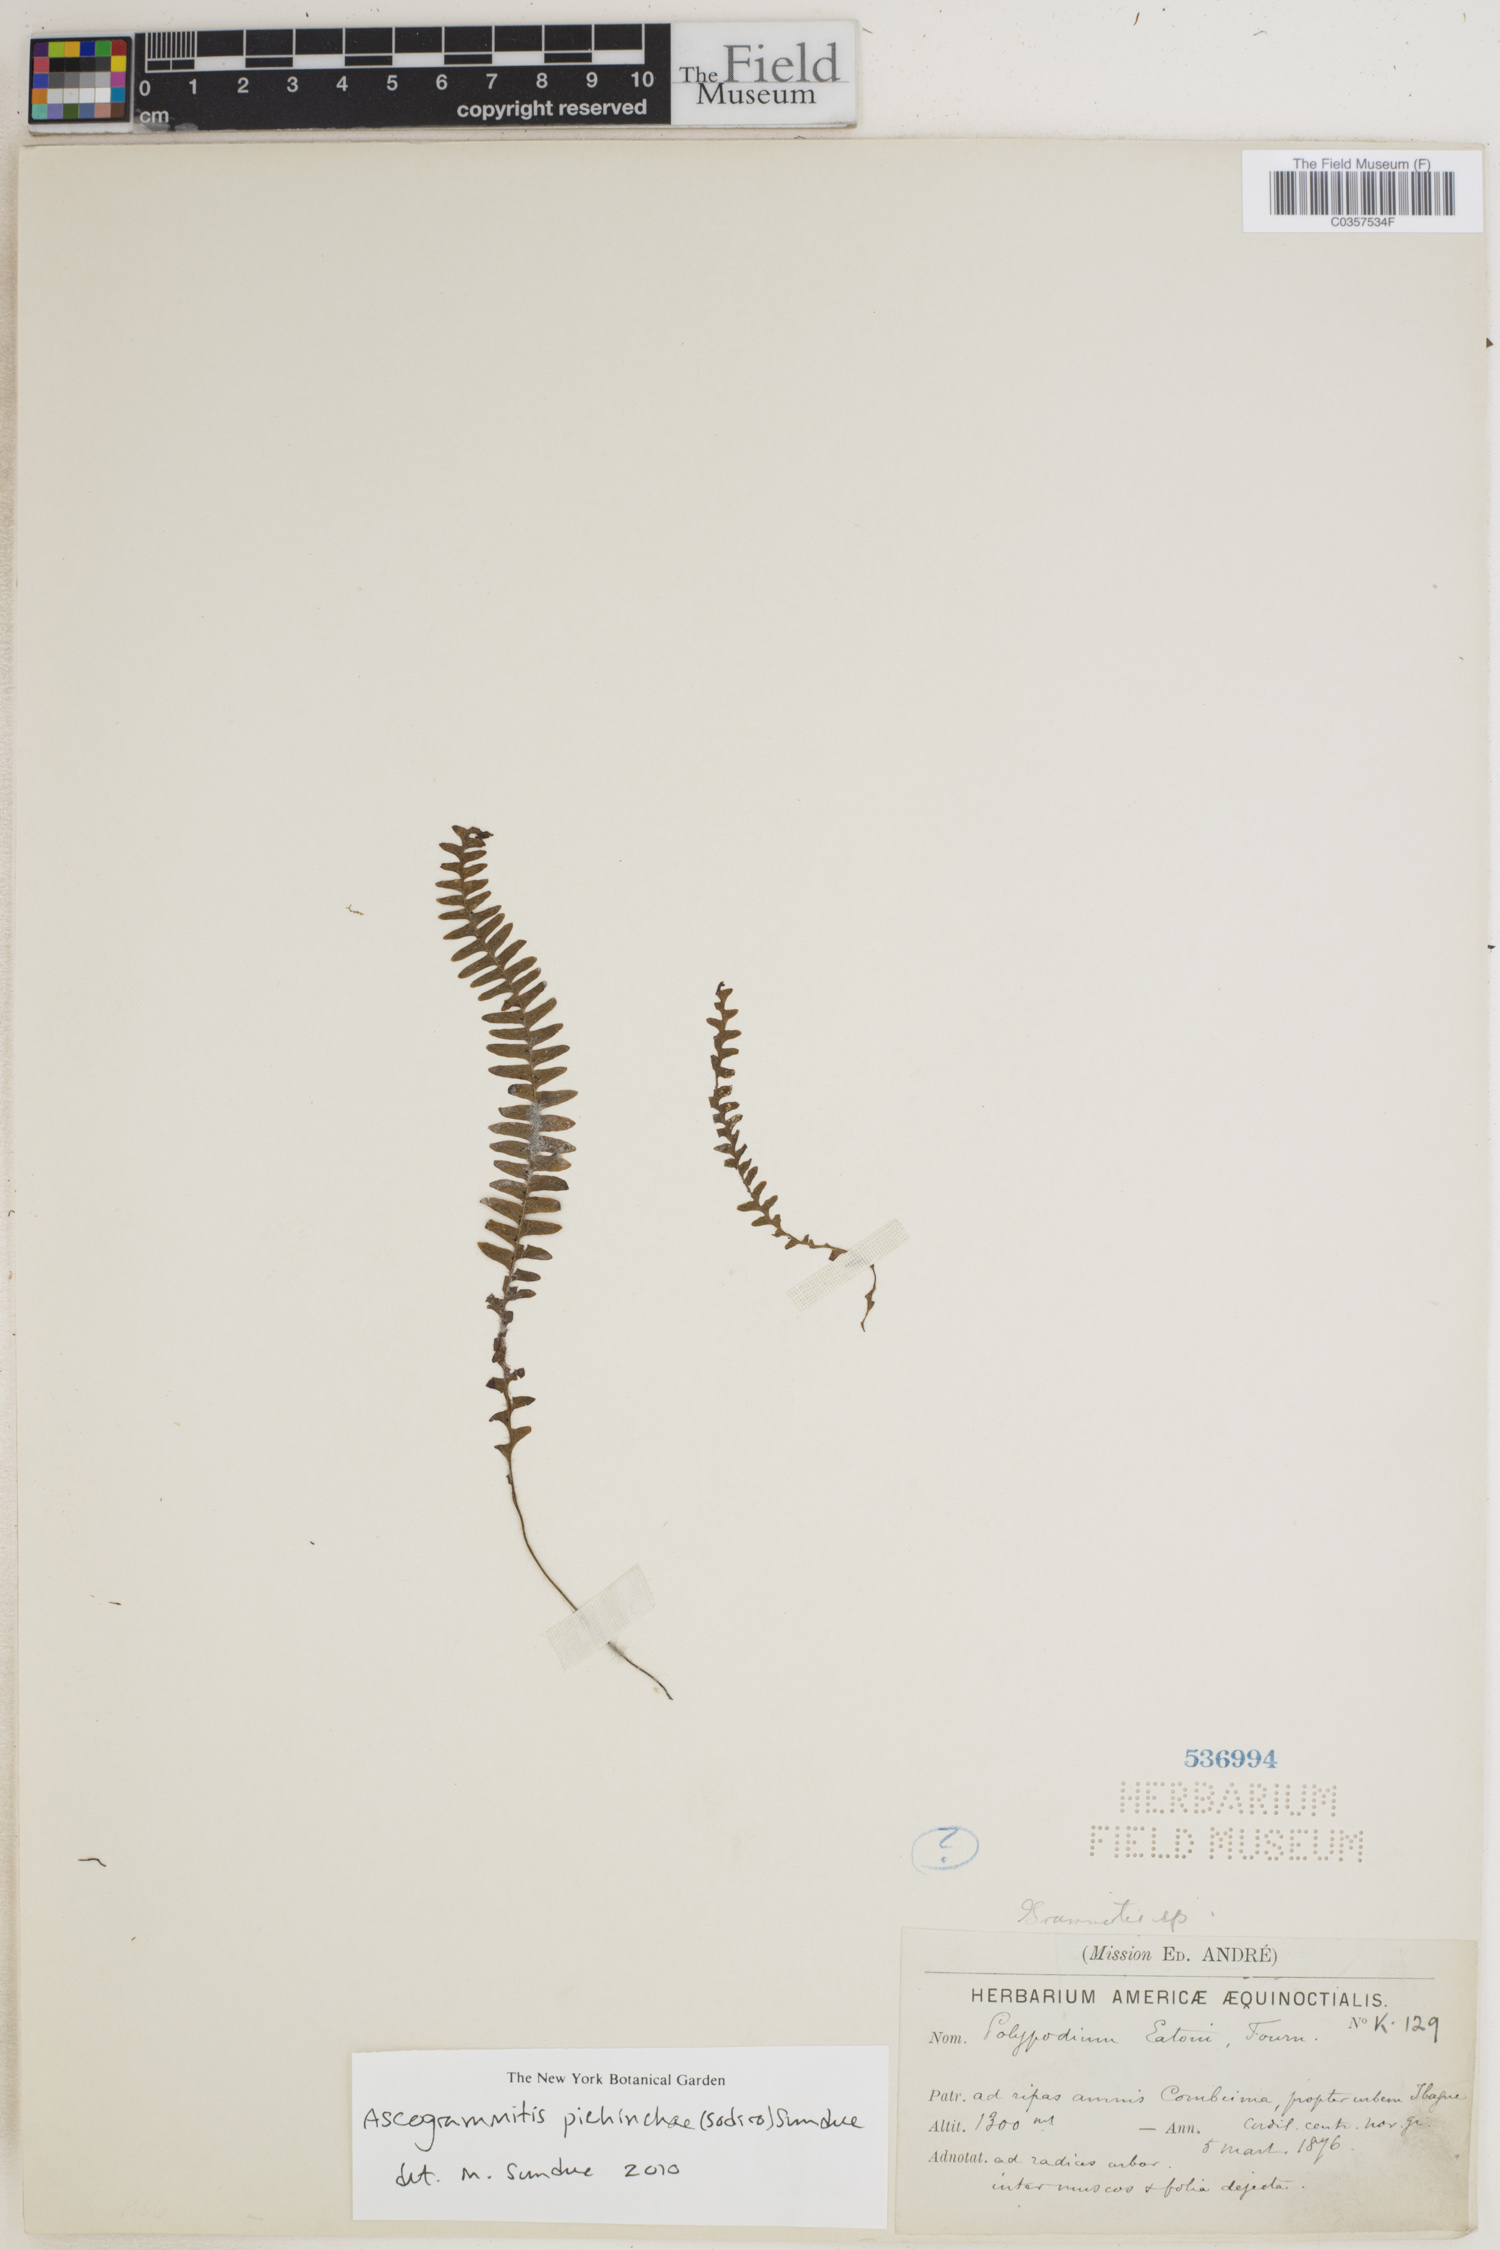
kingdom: Plantae
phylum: Tracheophyta
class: Polypodiopsida
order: Polypodiales
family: Polypodiaceae
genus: Ascogrammitis
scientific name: Ascogrammitis pichinchae
